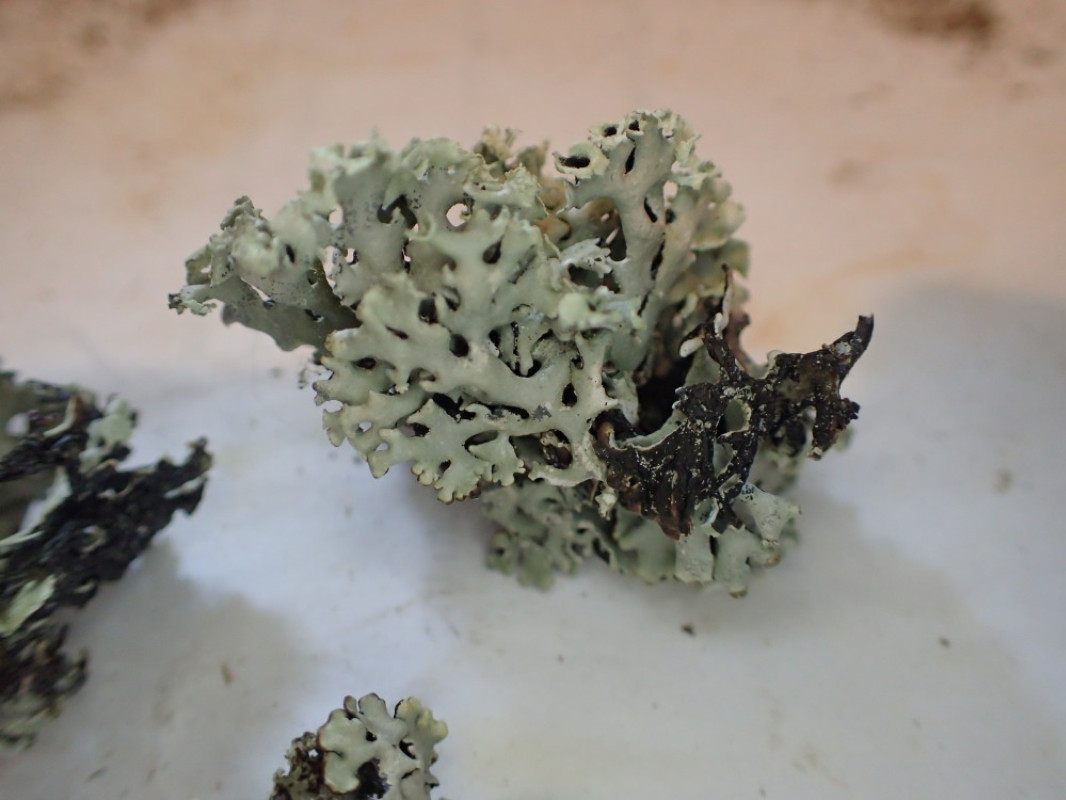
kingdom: Fungi
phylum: Ascomycota
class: Lecanoromycetes
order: Lecanorales
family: Parmeliaceae
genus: Hypogymnia
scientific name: Hypogymnia physodes
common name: almindelig kvistlav
